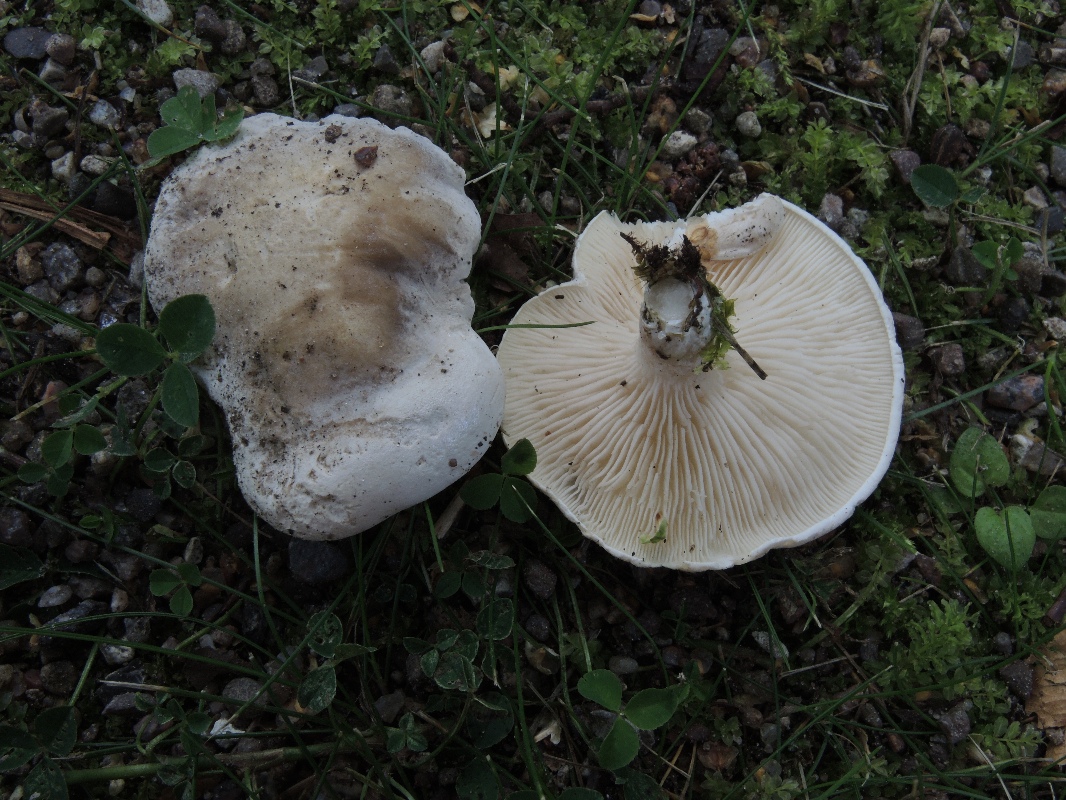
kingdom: Fungi
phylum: Basidiomycota
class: Agaricomycetes
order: Agaricales
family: Entolomataceae
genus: Clitopilus
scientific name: Clitopilus prunulus
